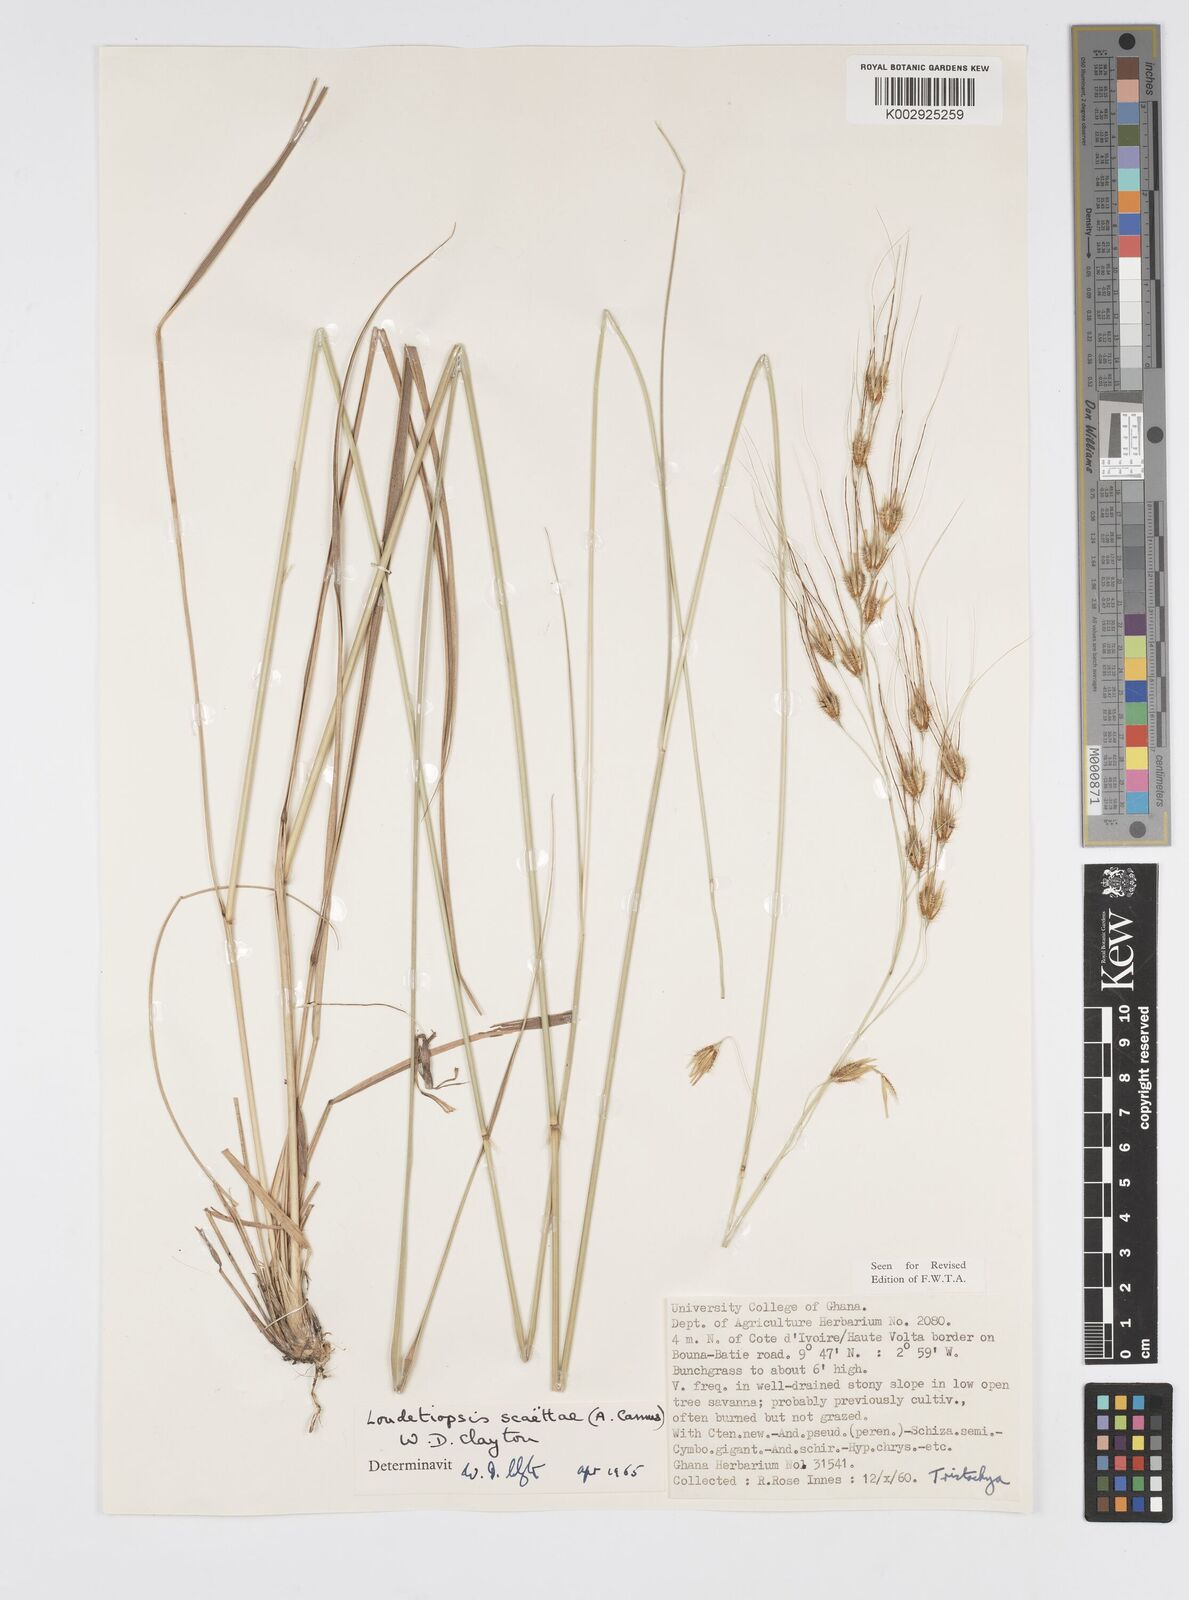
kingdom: Plantae
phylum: Tracheophyta
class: Liliopsida
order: Poales
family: Poaceae
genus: Loudetiopsis
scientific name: Loudetiopsis scaettae
